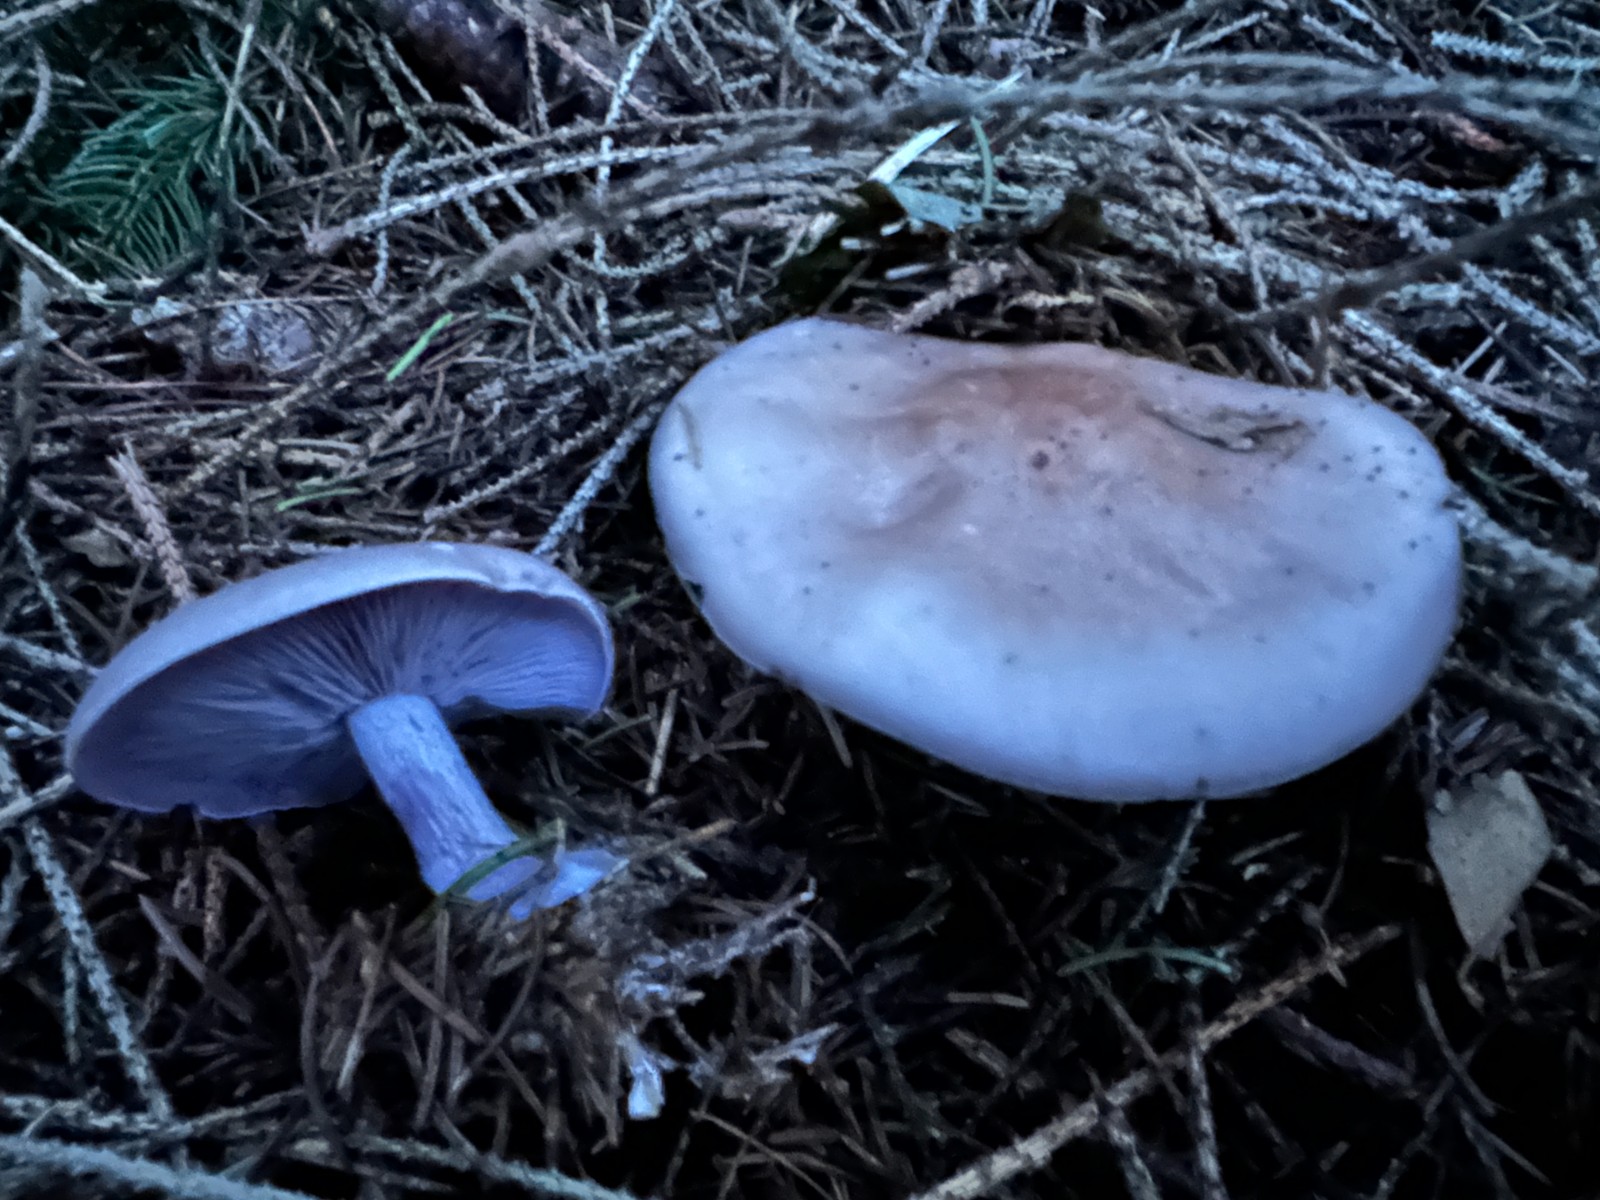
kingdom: Fungi
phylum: Basidiomycota
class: Agaricomycetes
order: Agaricales
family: Tricholomataceae
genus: Lepista
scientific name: Lepista nuda
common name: violet hekseringshat
